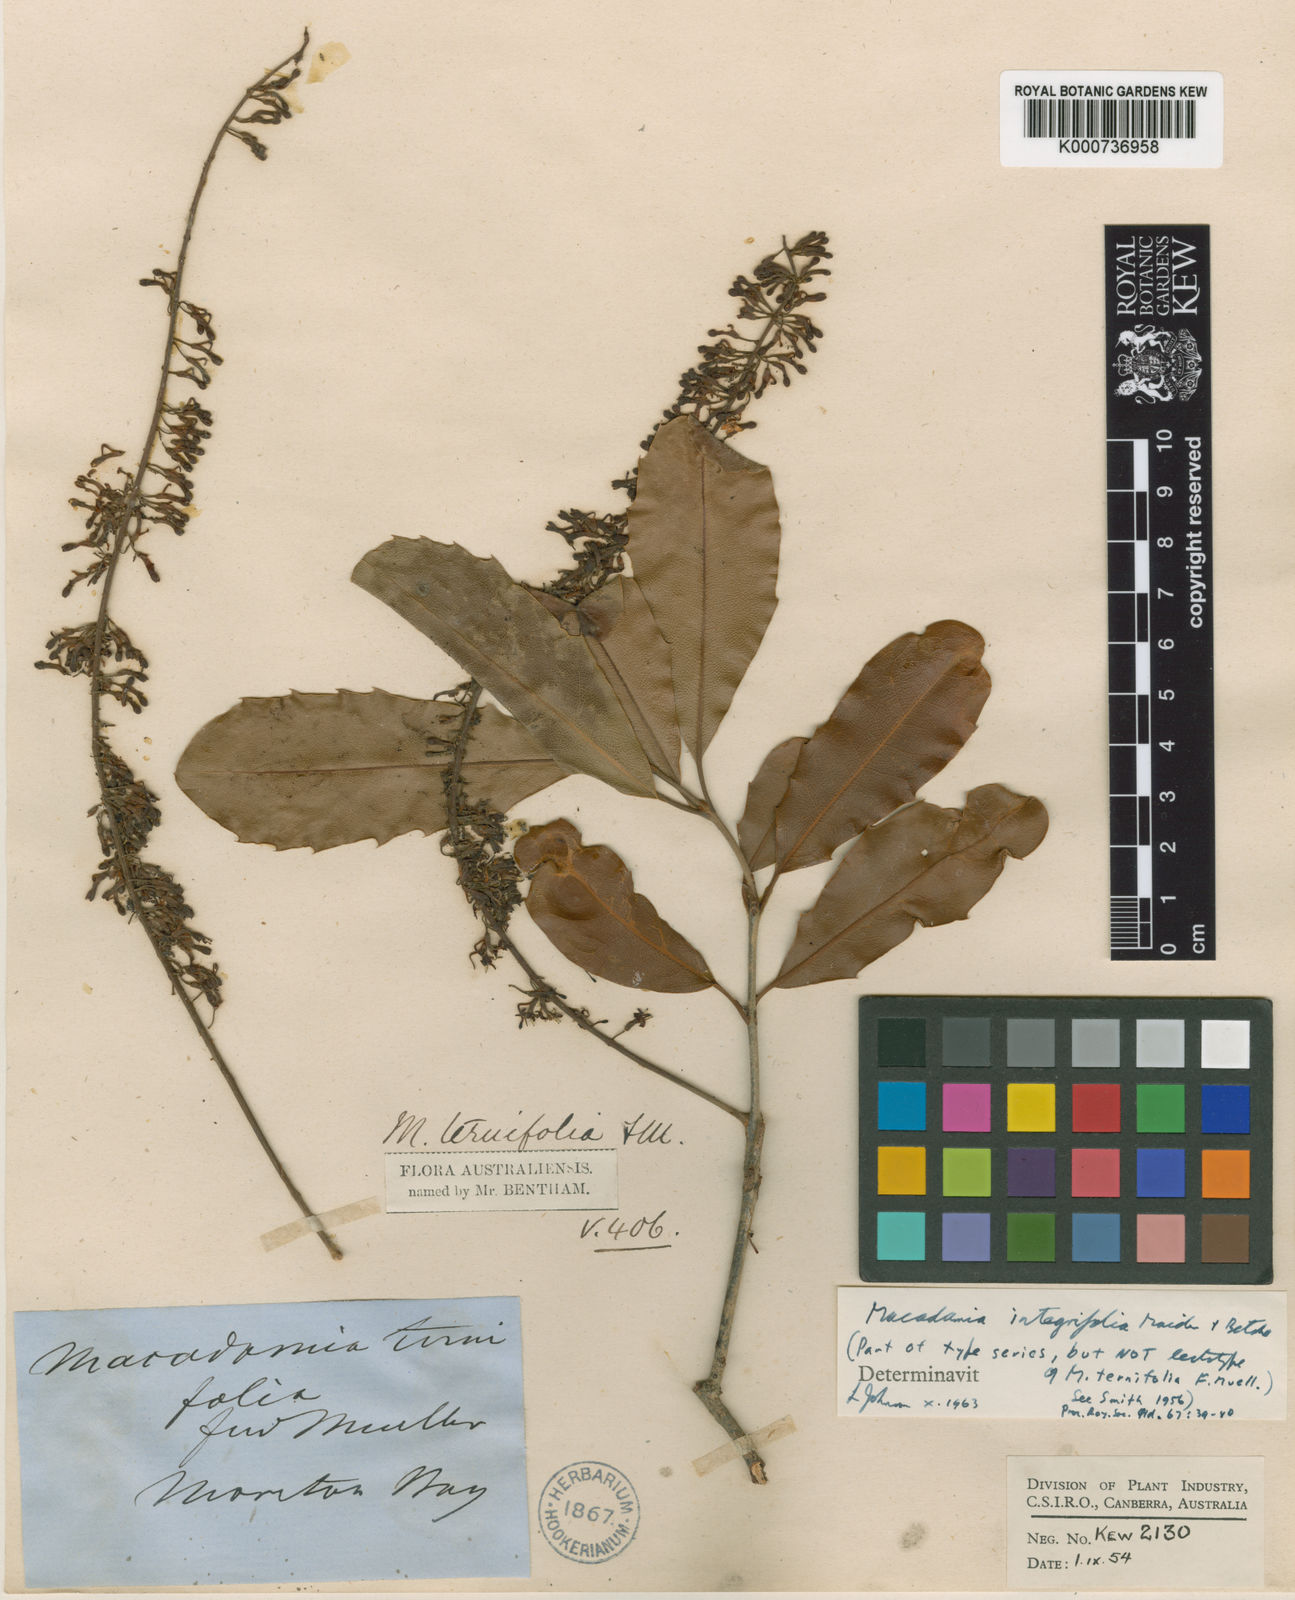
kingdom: Plantae
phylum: Tracheophyta
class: Magnoliopsida
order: Proteales
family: Proteaceae
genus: Macadamia
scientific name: Macadamia ternifolia
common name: Australian-nut
